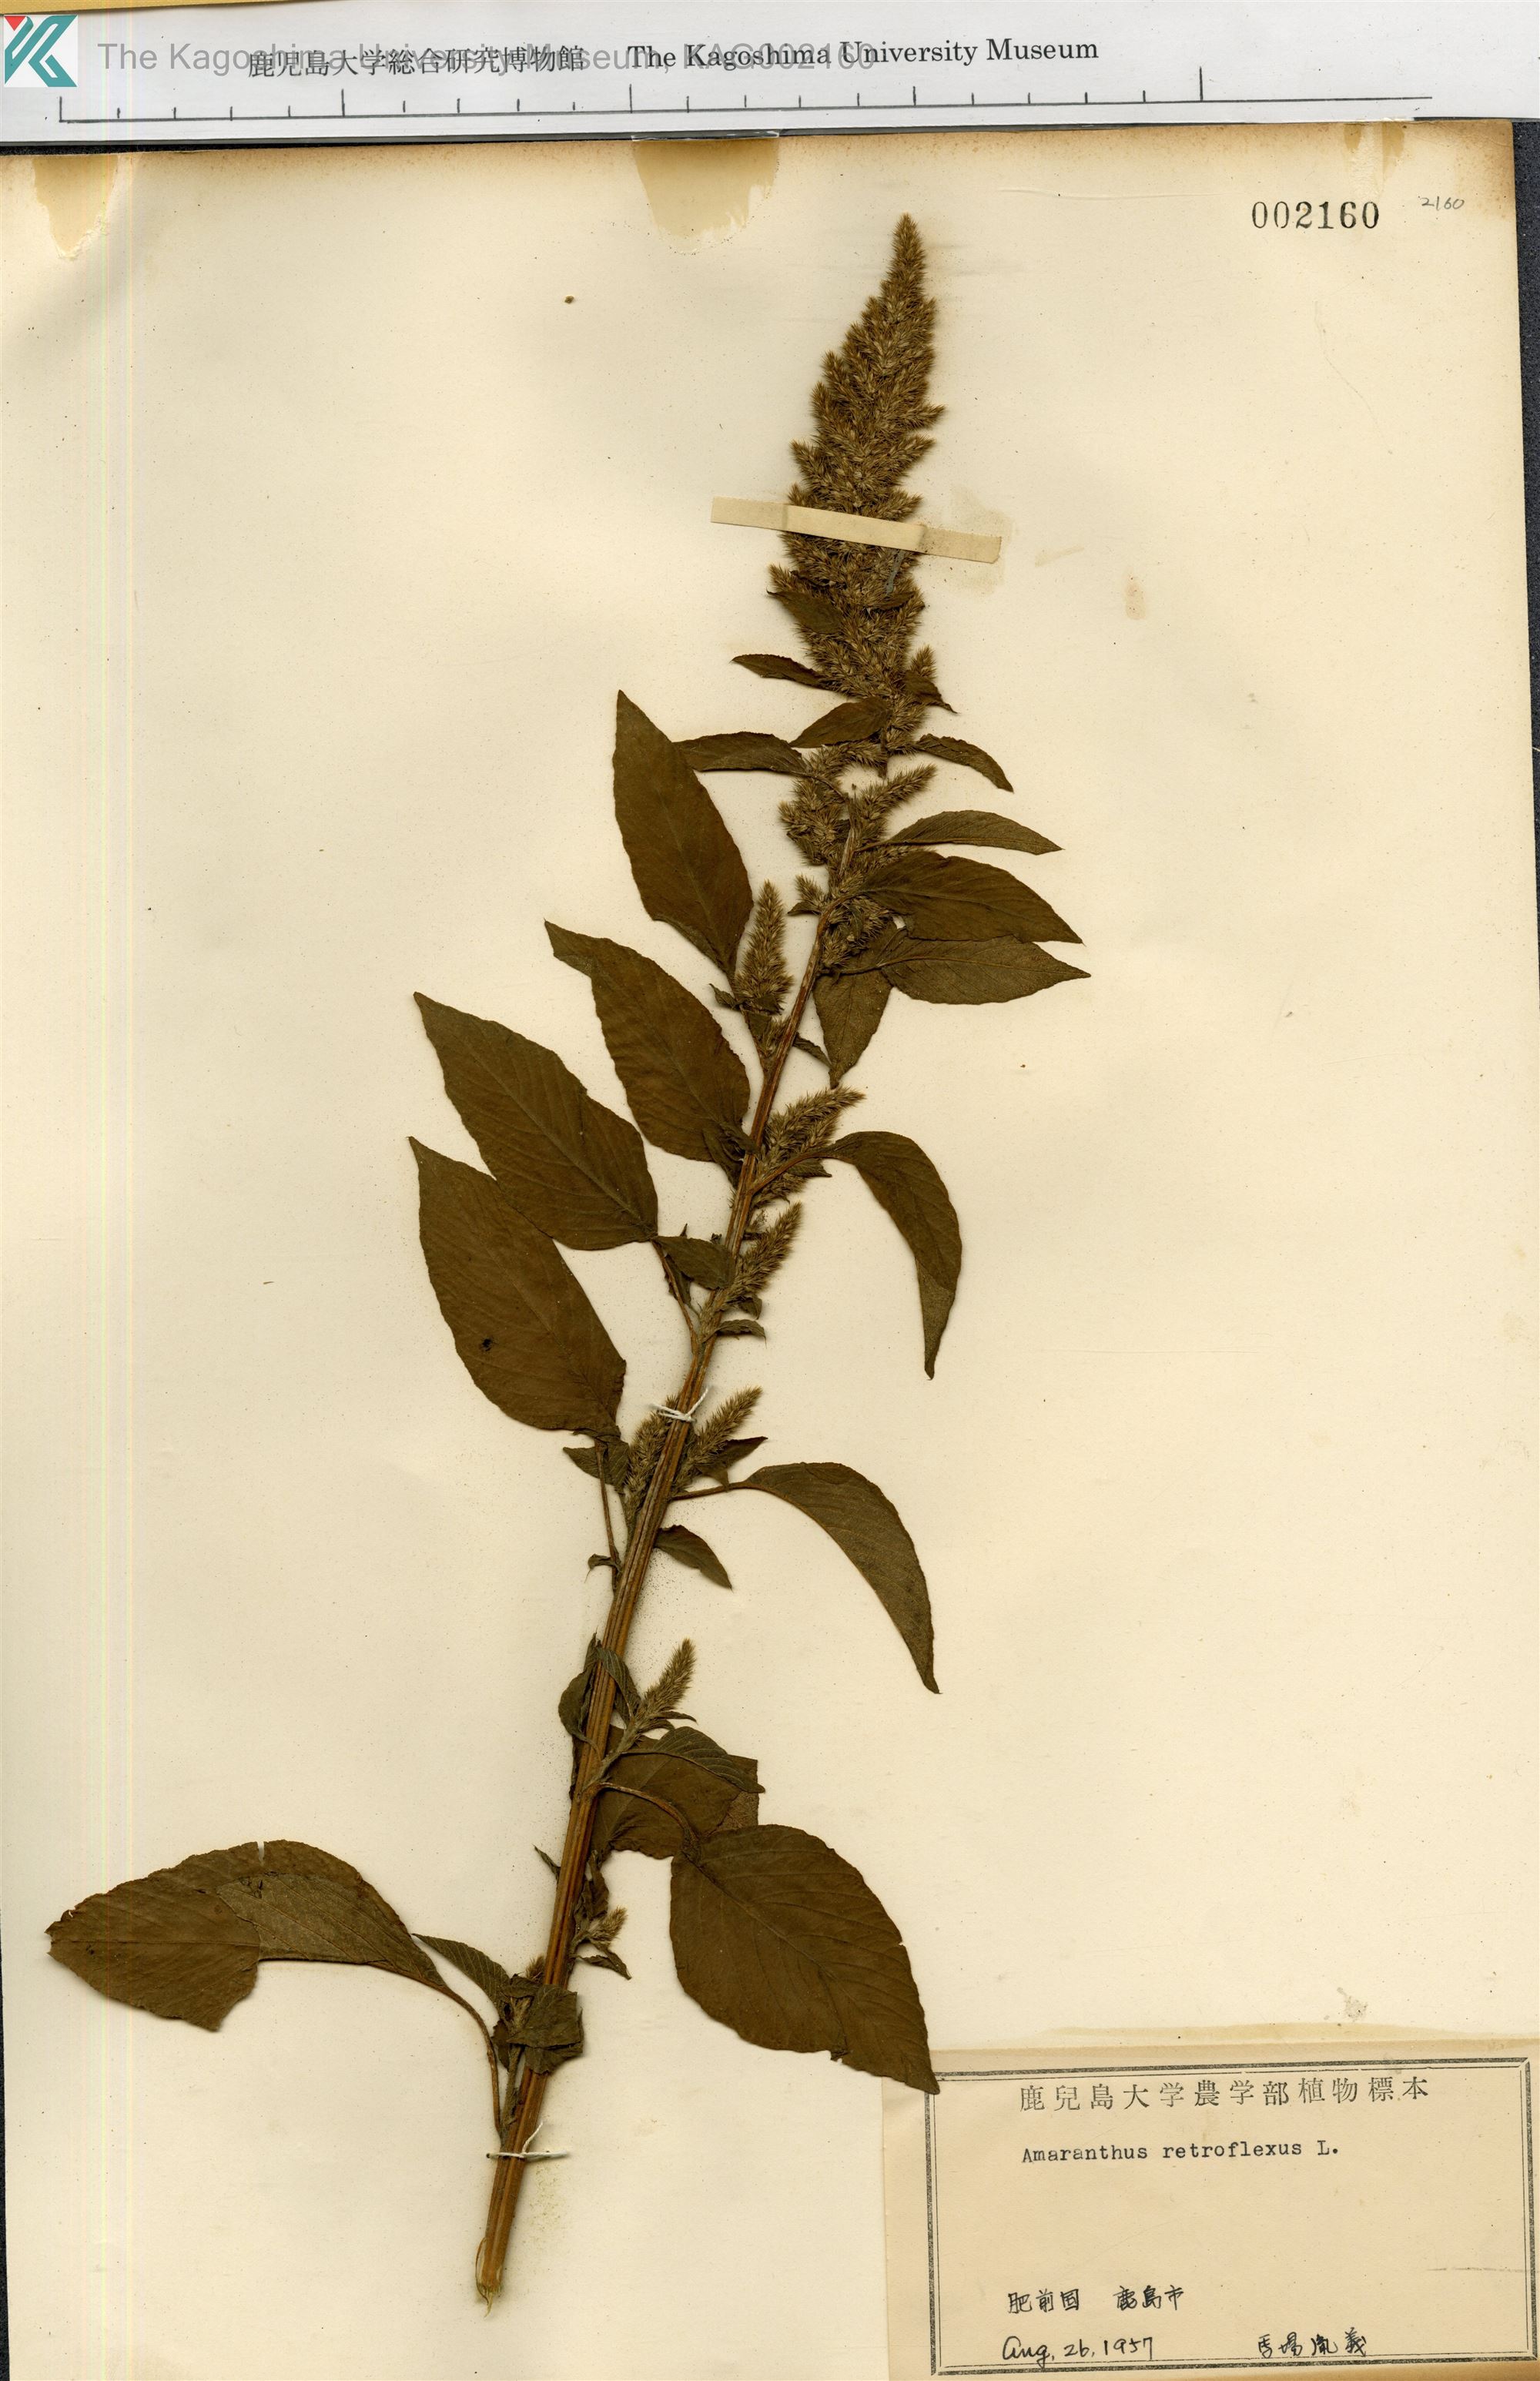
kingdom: Plantae
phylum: Tracheophyta
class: Magnoliopsida
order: Caryophyllales
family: Amaranthaceae
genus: Amaranthus
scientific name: Amaranthus retroflexus
